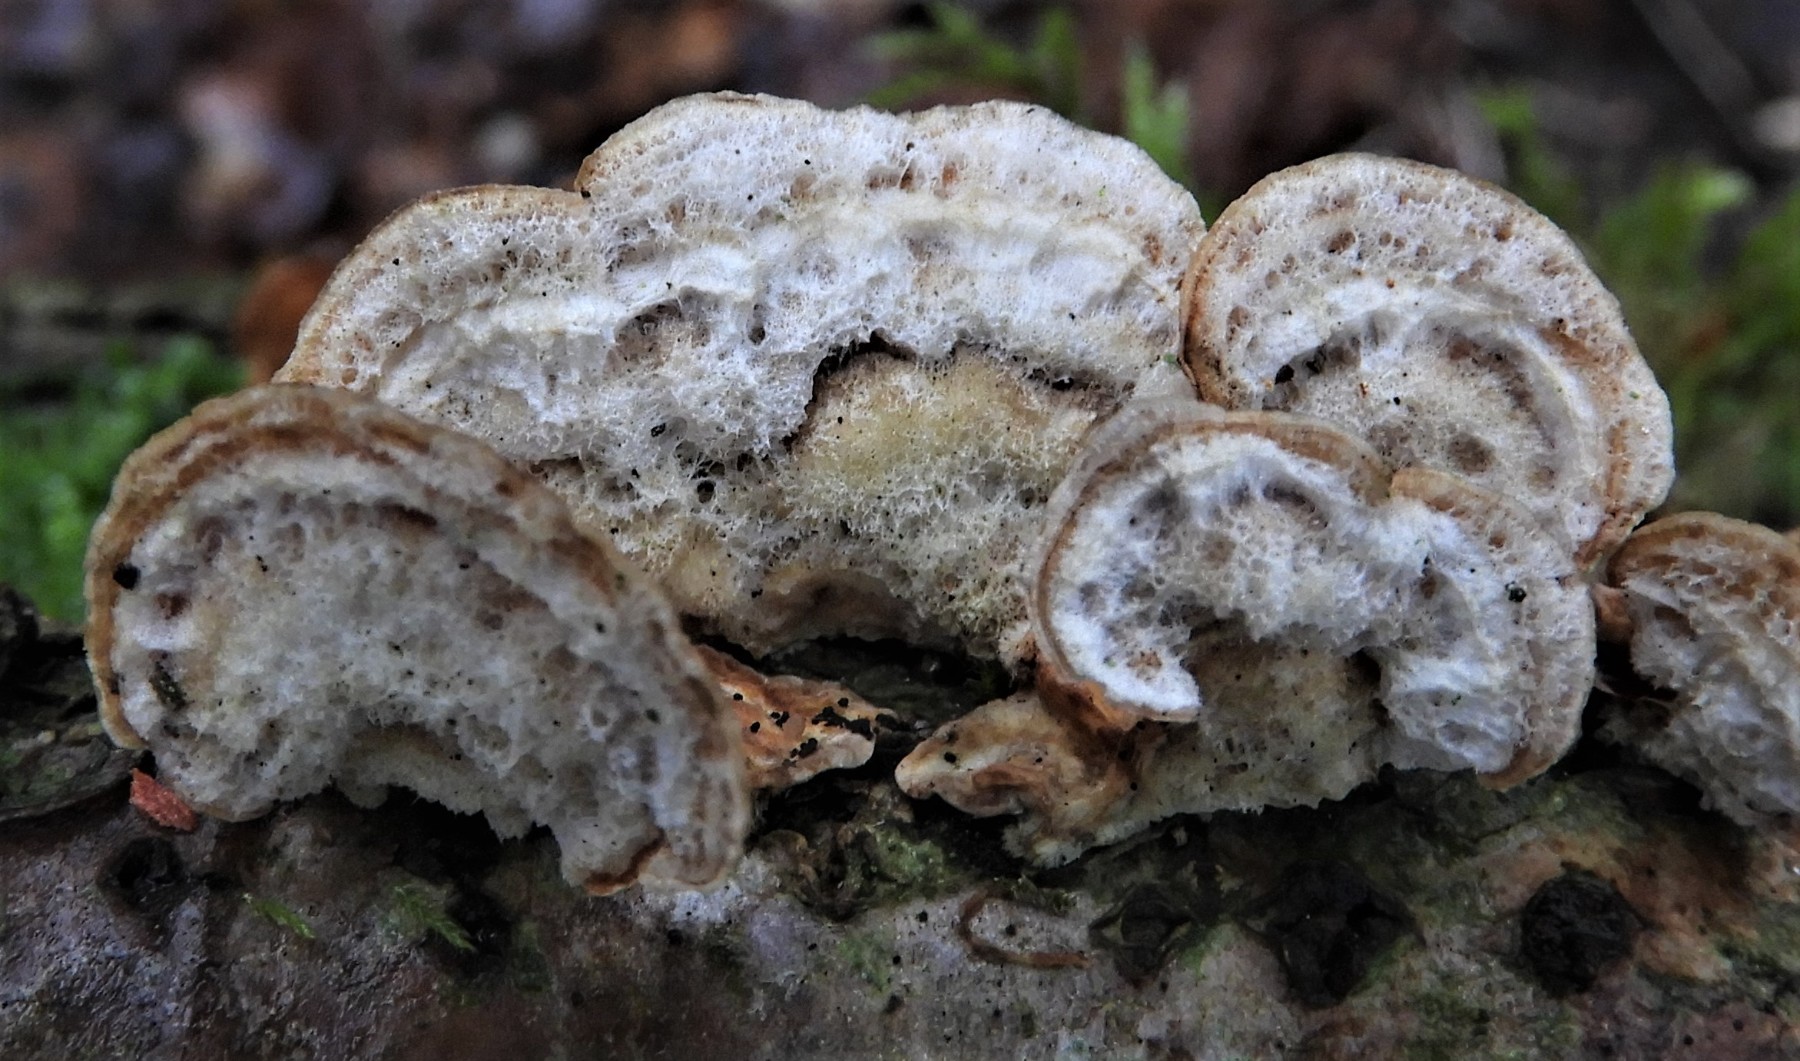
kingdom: Fungi
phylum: Basidiomycota
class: Agaricomycetes
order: Russulales
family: Stereaceae
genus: Stereum
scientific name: Stereum hirsutum
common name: håret lædersvamp
